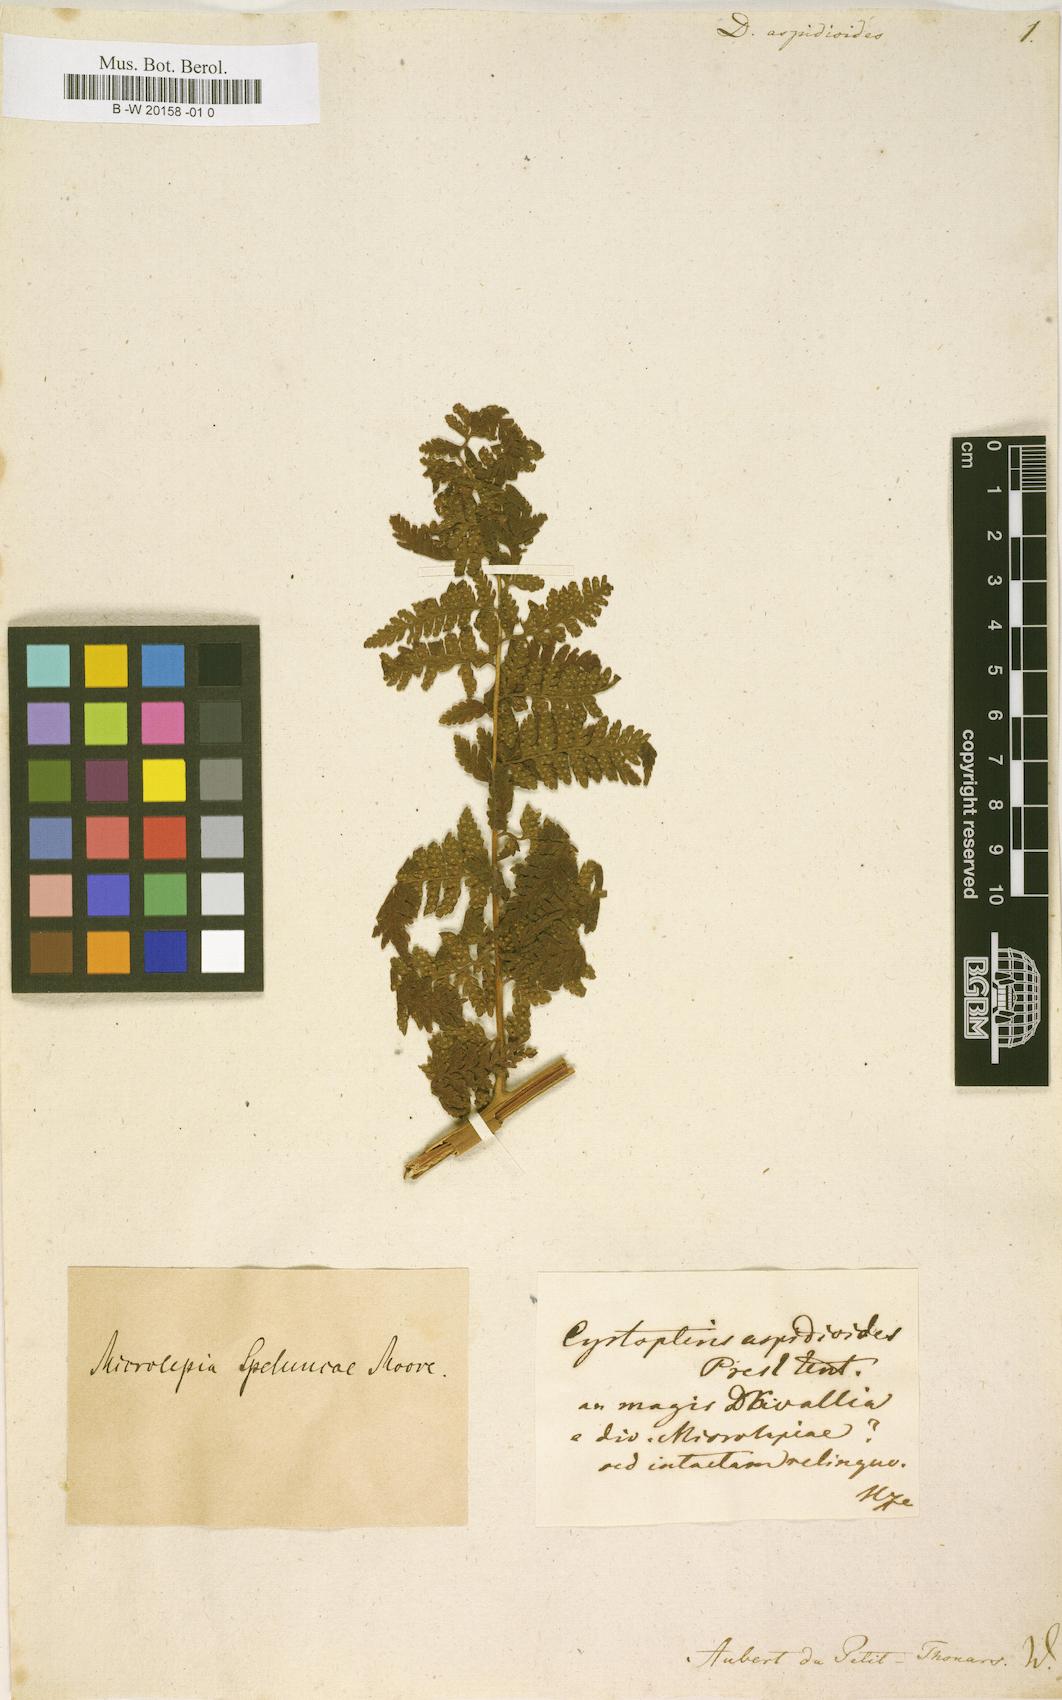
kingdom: Plantae
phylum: Tracheophyta
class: Polypodiopsida
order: Cyatheales
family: Dicksoniaceae
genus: Dicksonia
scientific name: Dicksonia
